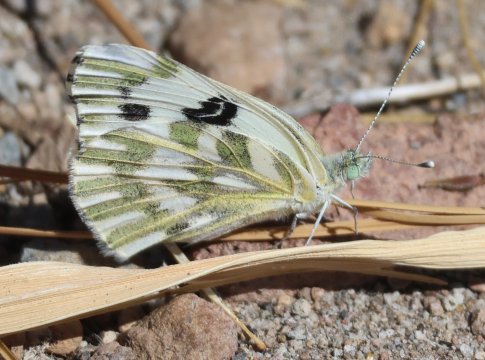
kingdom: Animalia
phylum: Arthropoda
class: Insecta
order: Lepidoptera
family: Pieridae
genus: Pontia
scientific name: Pontia beckerii
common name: Becker's White
